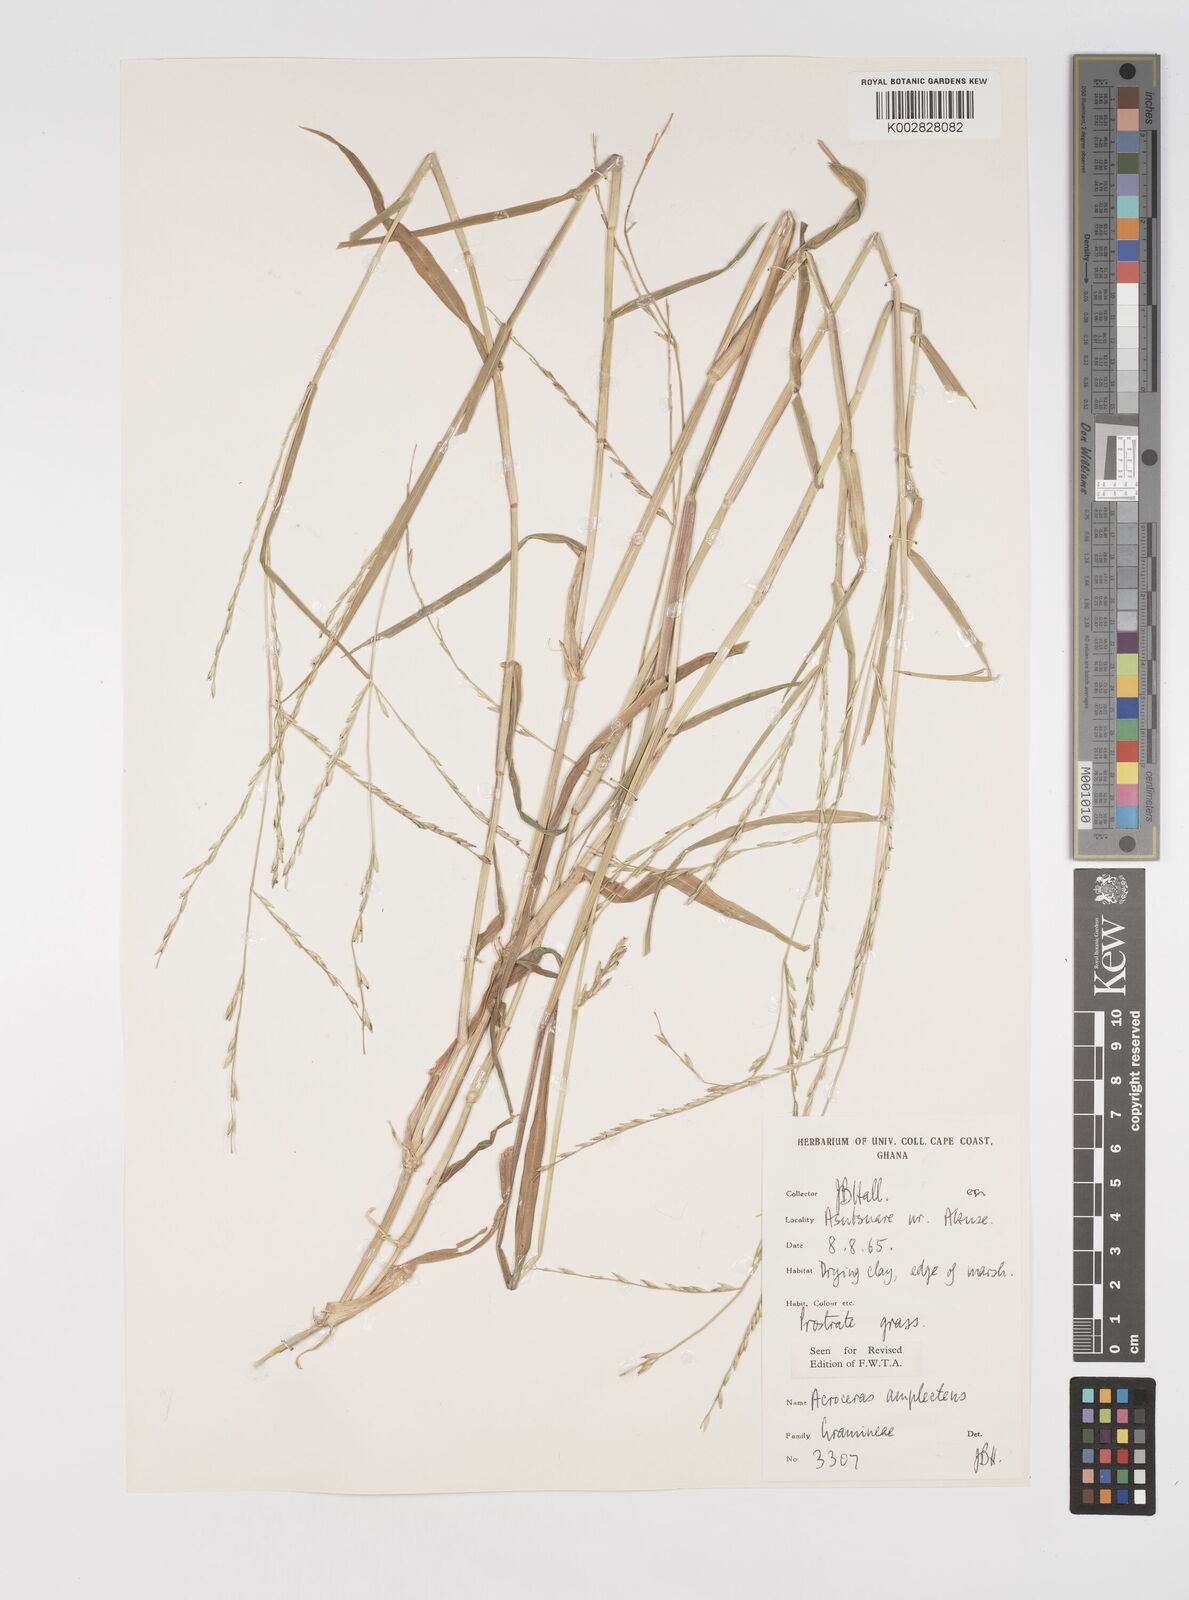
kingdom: Plantae
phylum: Tracheophyta
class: Liliopsida
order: Poales
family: Poaceae
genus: Acroceras
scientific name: Acroceras amplectens
